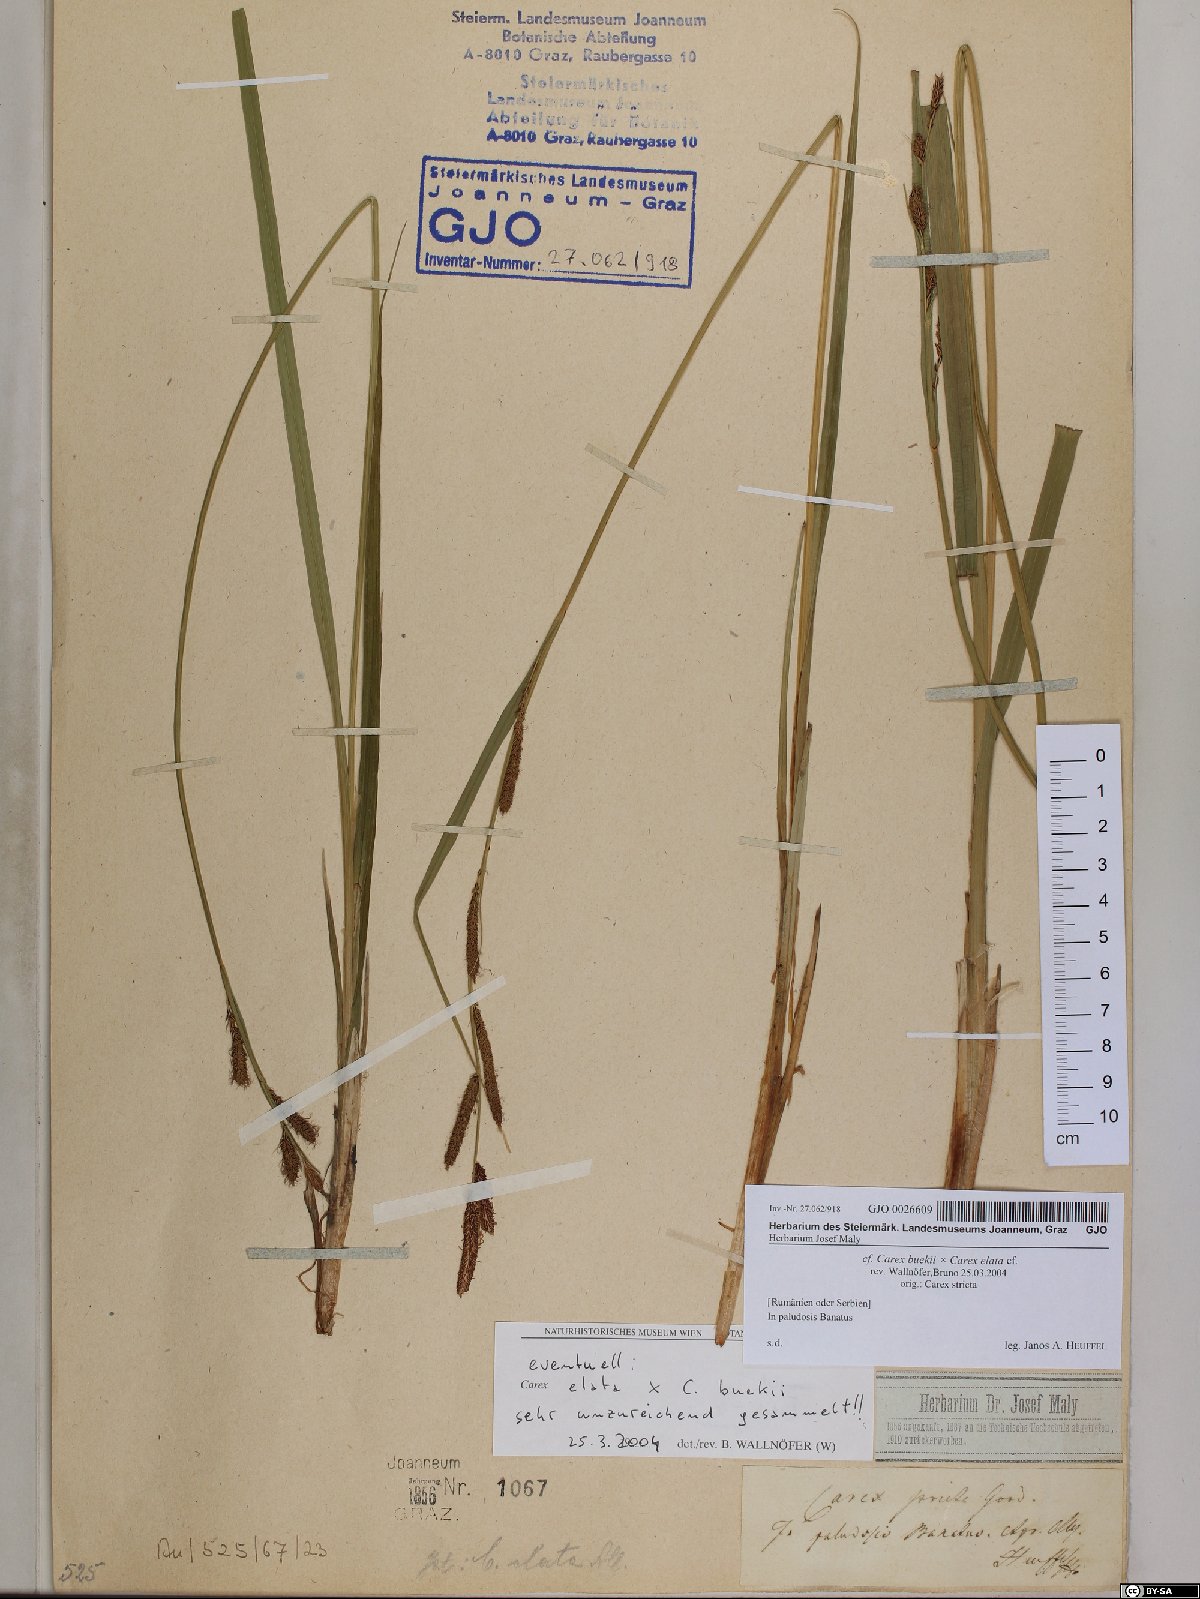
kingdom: Plantae
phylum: Tracheophyta
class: Liliopsida
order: Poales
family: Cyperaceae
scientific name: Cyperaceae
